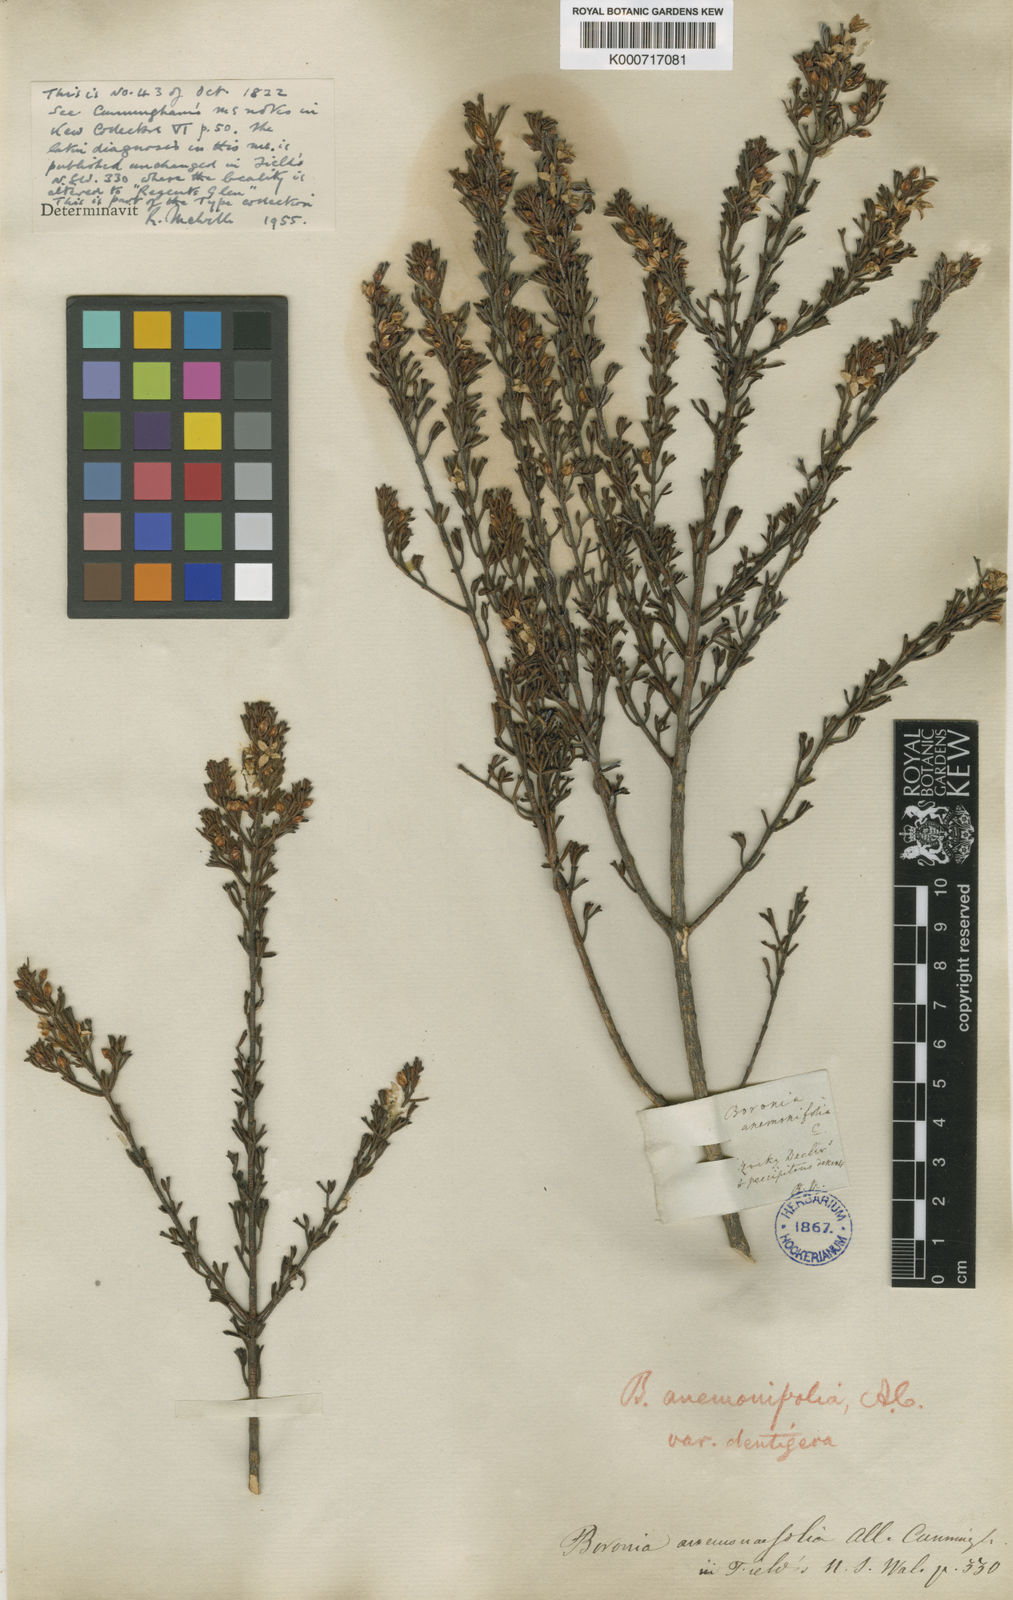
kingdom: Plantae
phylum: Tracheophyta
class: Magnoliopsida
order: Sapindales
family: Rutaceae
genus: Cyanothamnus
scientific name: Cyanothamnus anemonifolius
